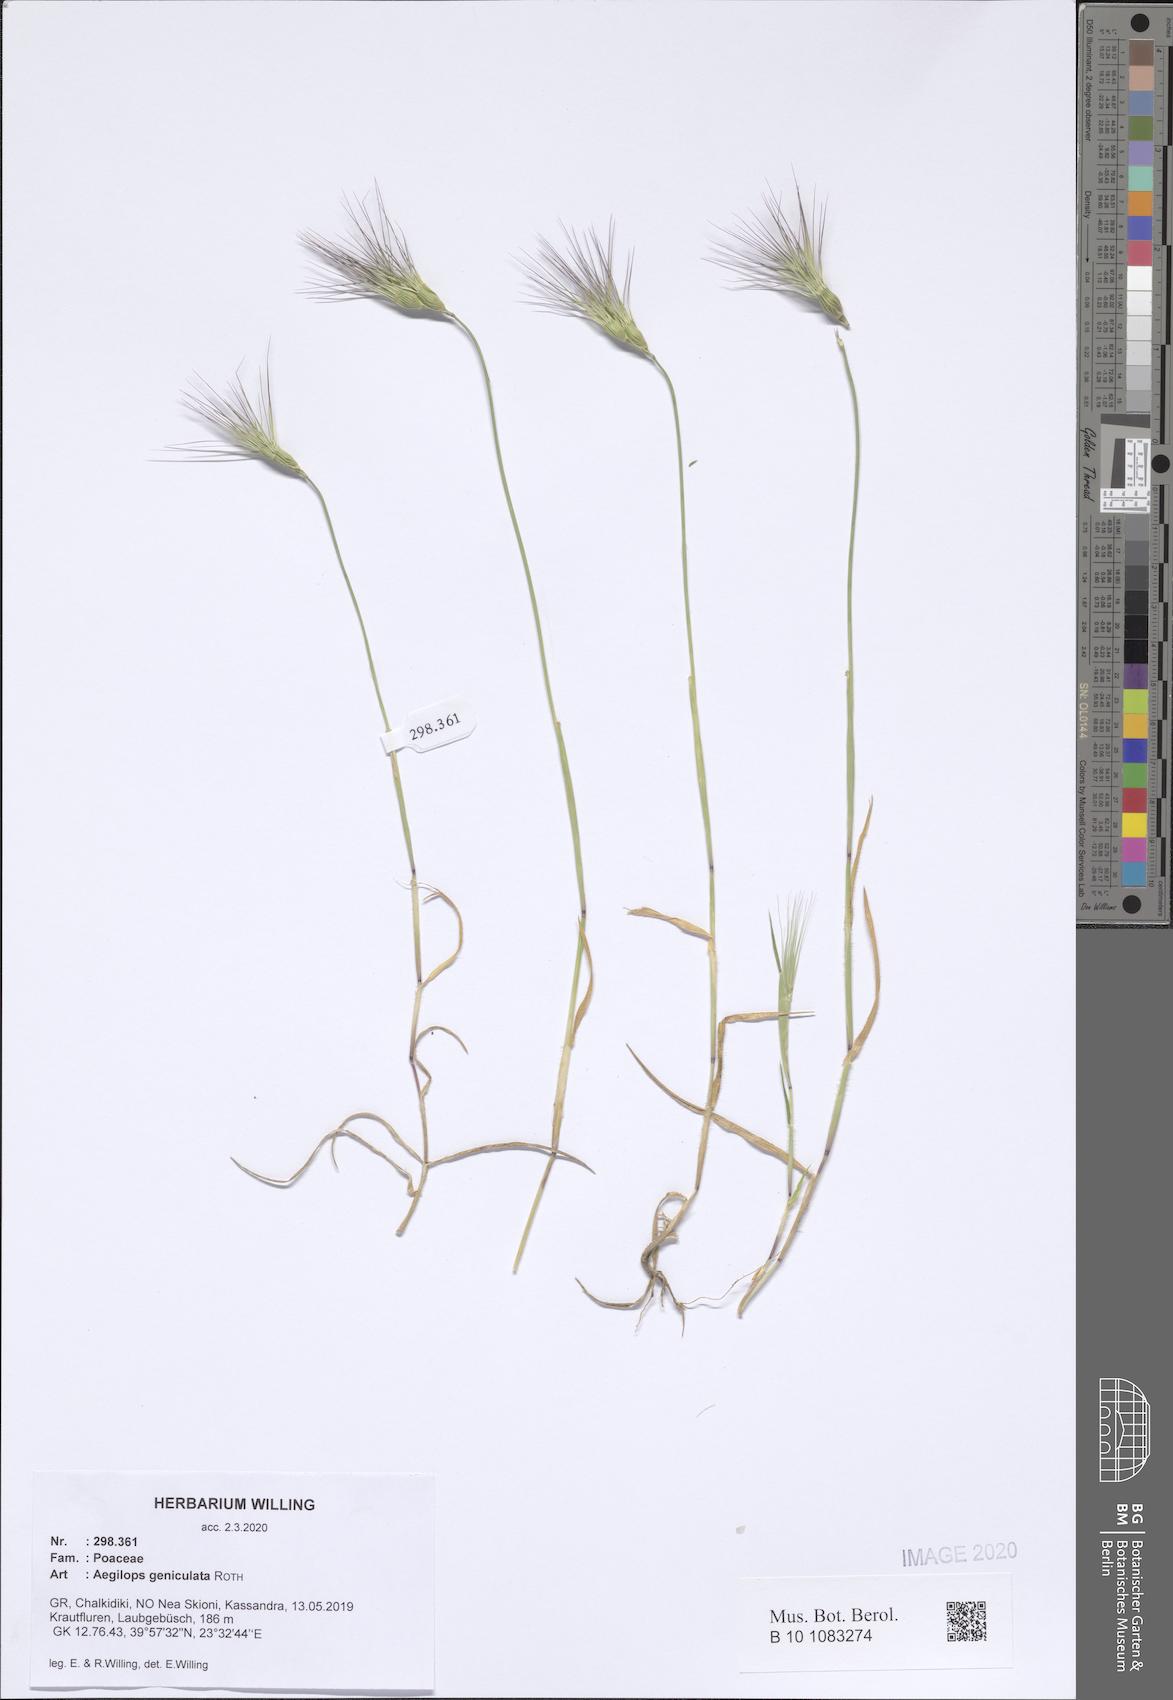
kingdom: Plantae
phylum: Tracheophyta
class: Liliopsida
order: Poales
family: Poaceae
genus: Aegilops
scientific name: Aegilops geniculata
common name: Ovate goat grass
